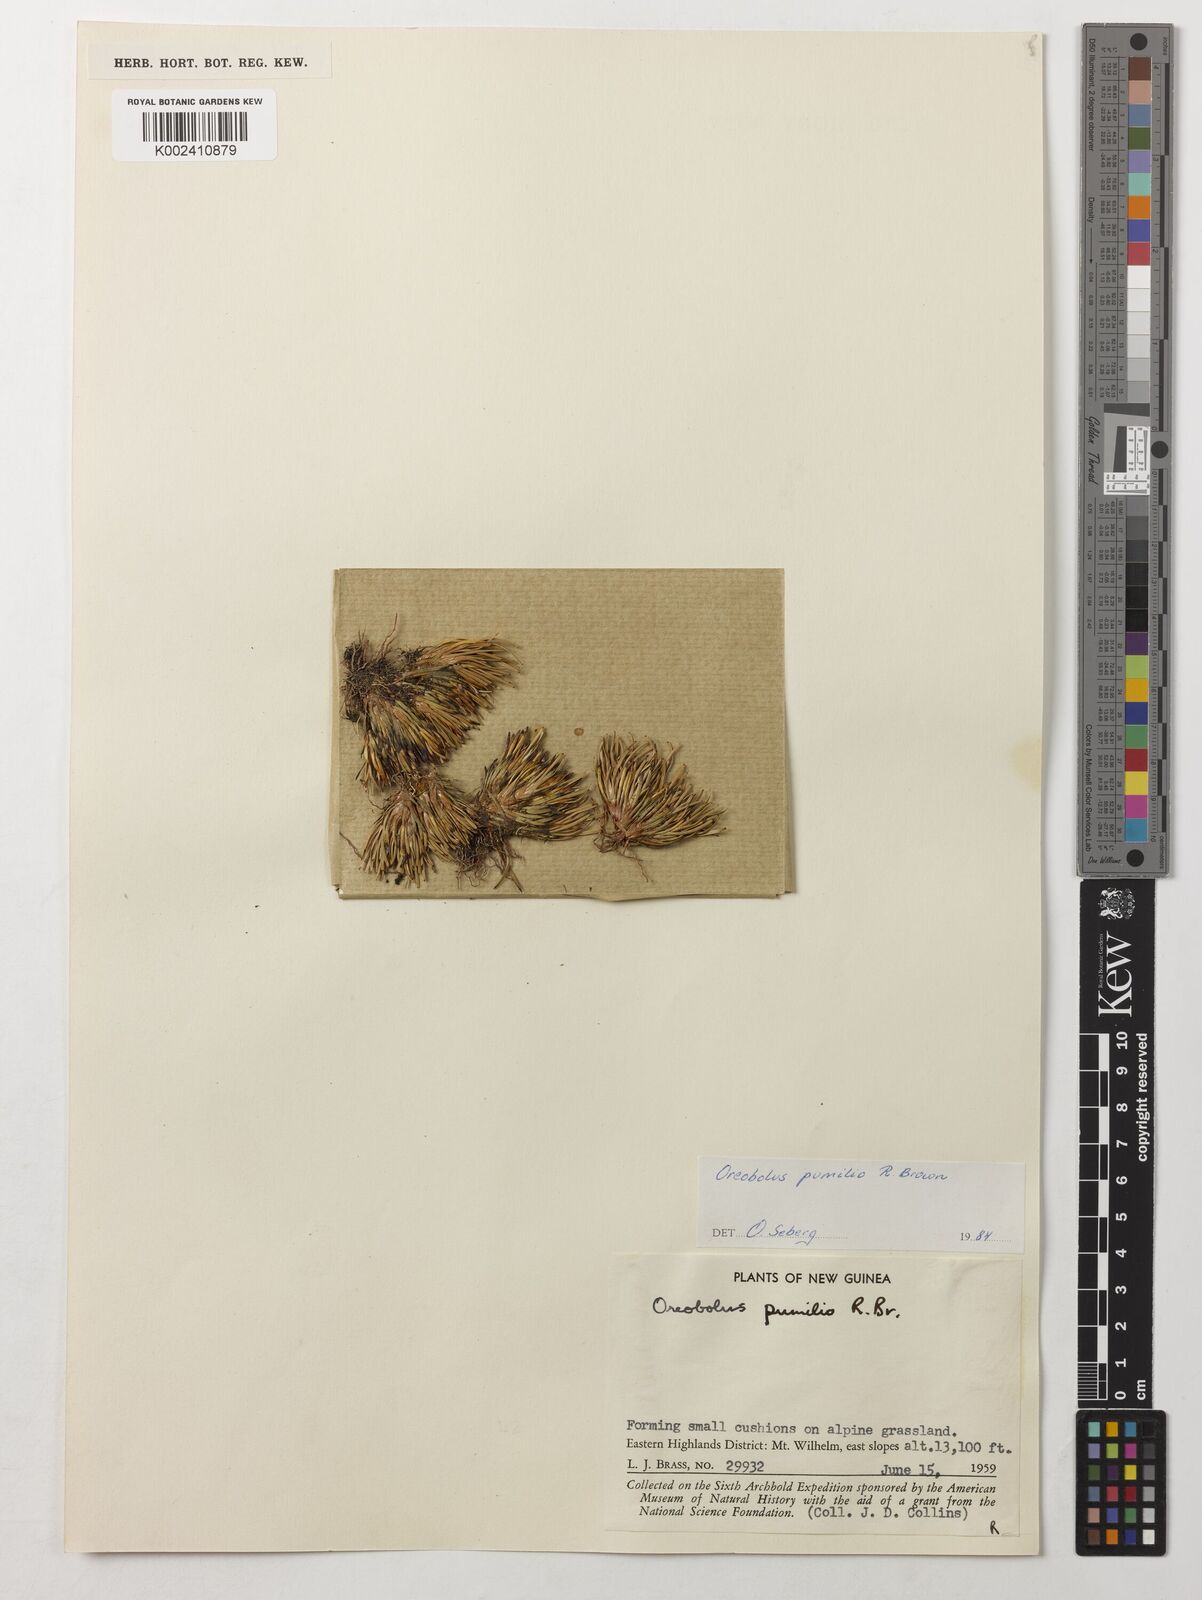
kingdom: Plantae
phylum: Tracheophyta
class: Liliopsida
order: Poales
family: Cyperaceae
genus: Oreobolus
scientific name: Oreobolus pumilio
